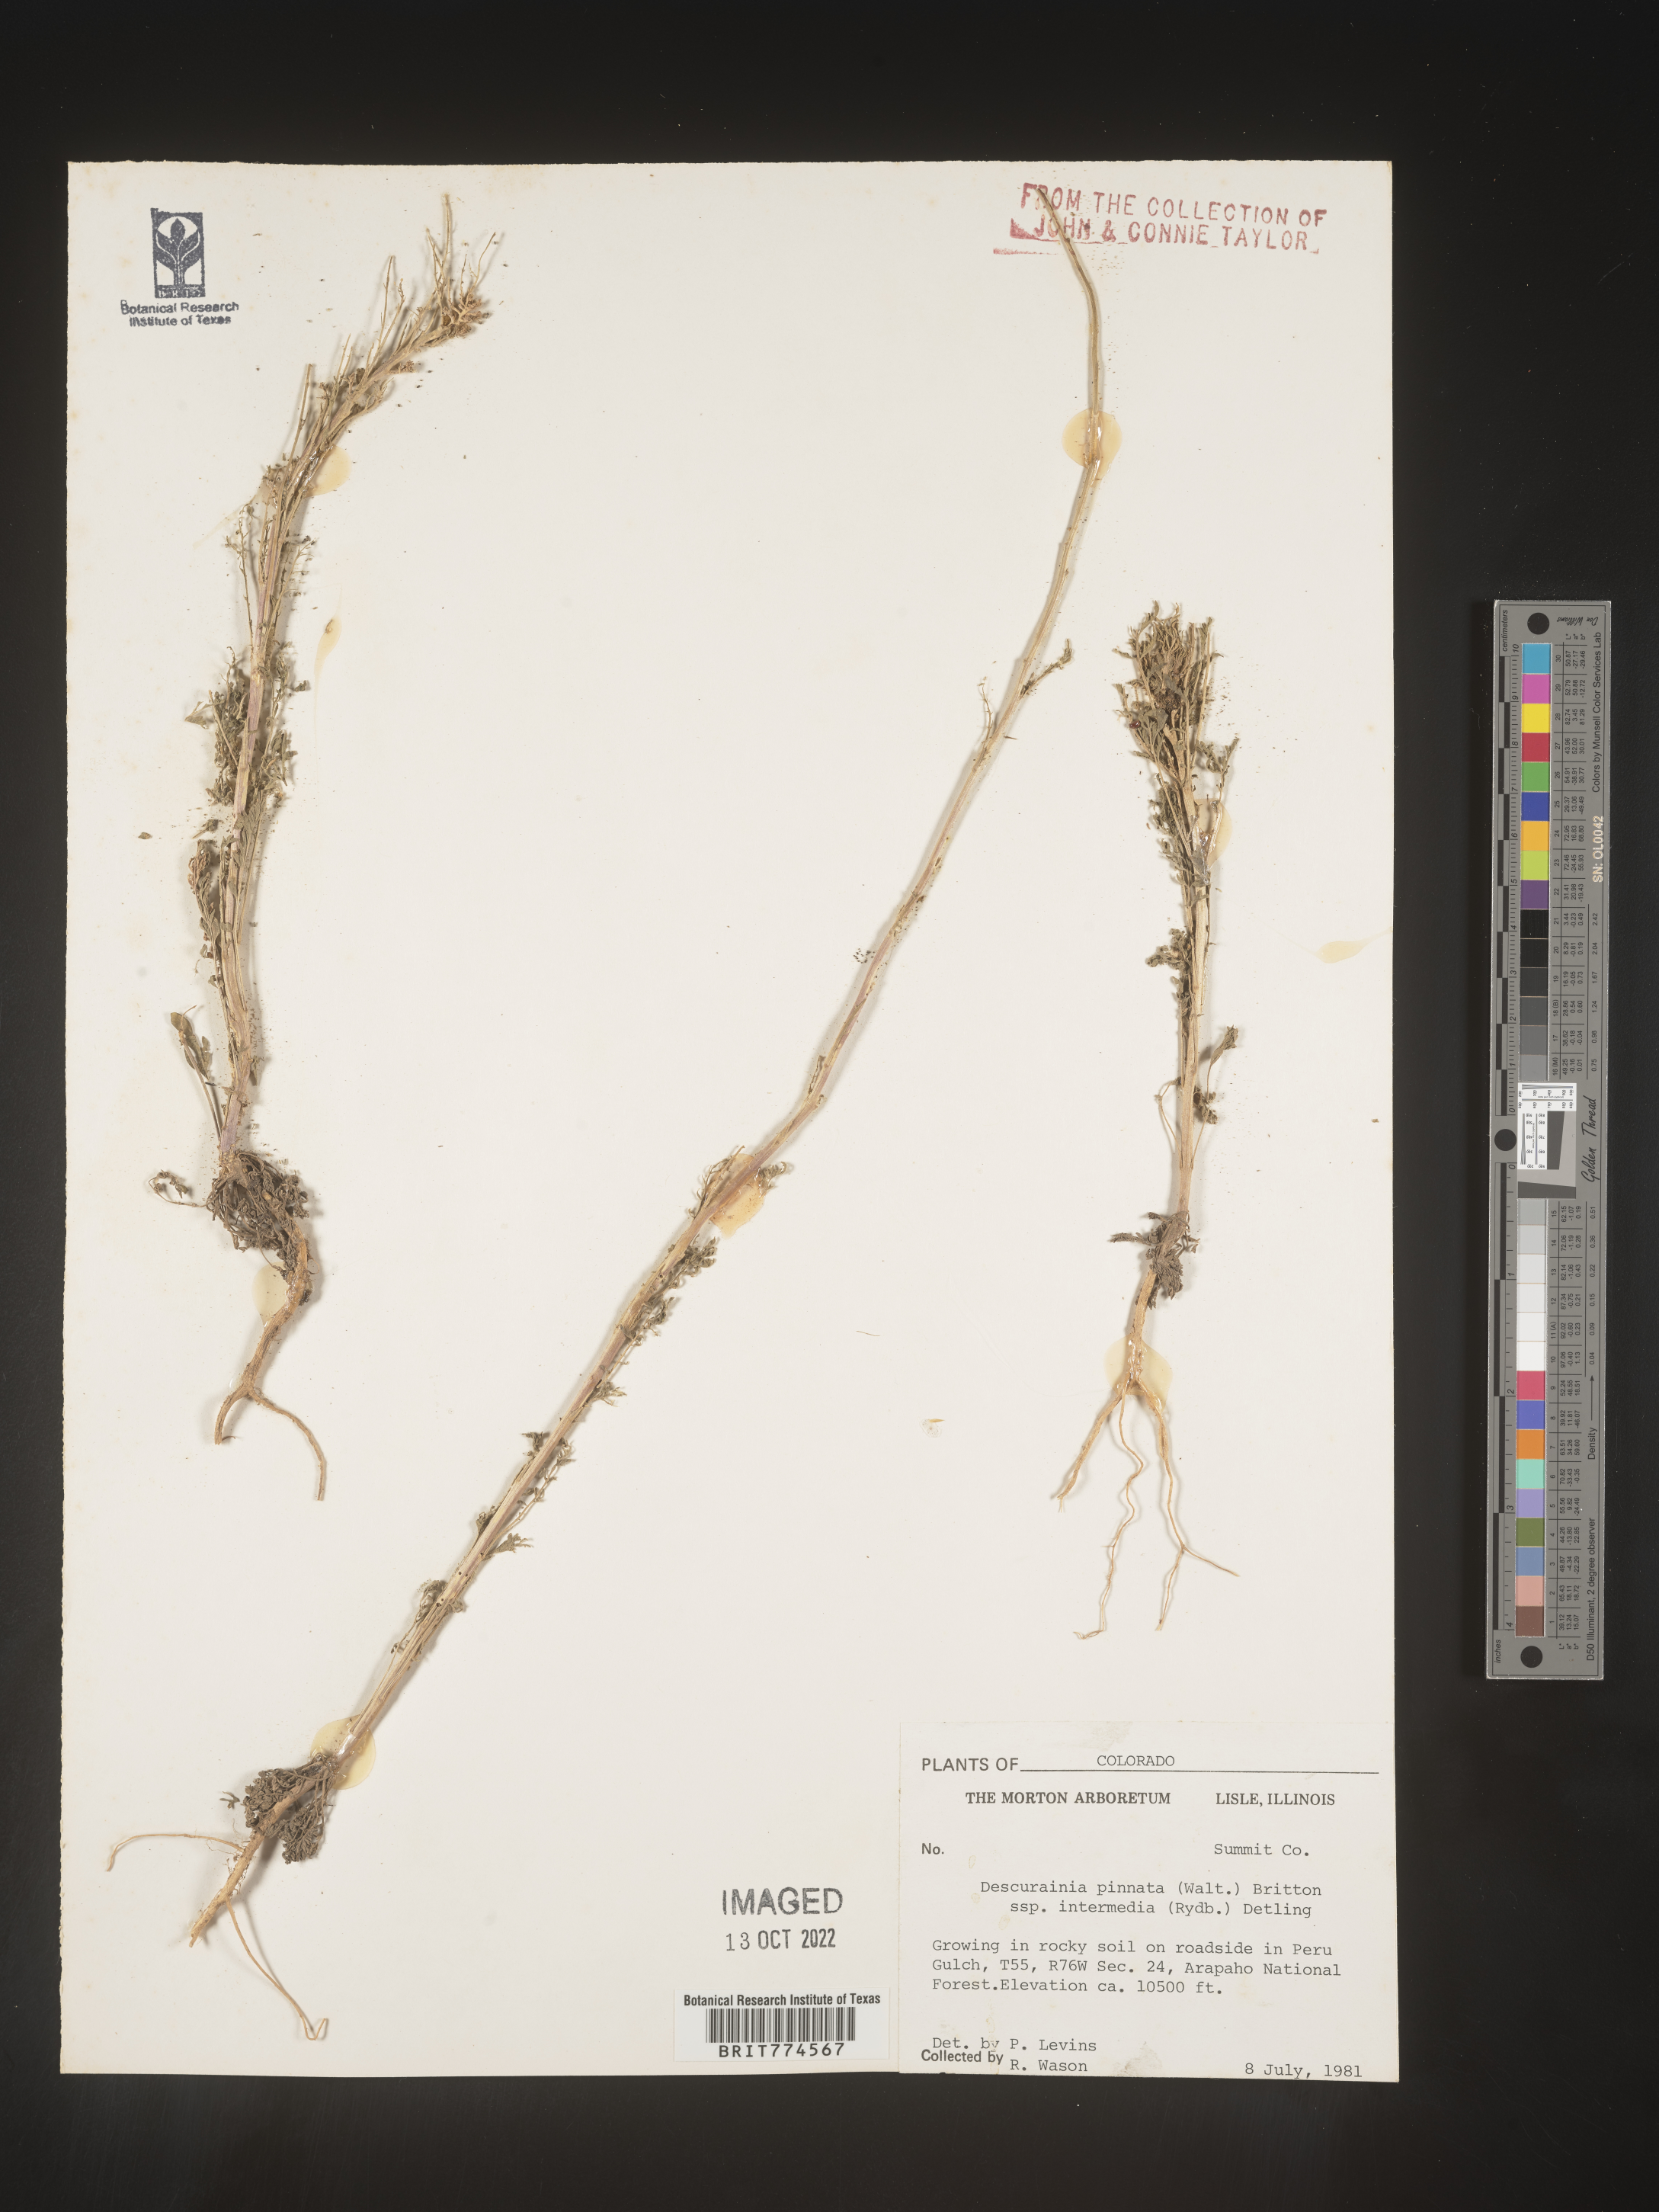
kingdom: Plantae
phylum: Tracheophyta
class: Magnoliopsida
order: Brassicales
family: Brassicaceae
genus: Descurainia
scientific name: Descurainia pinnata
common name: Western tansy mustard
